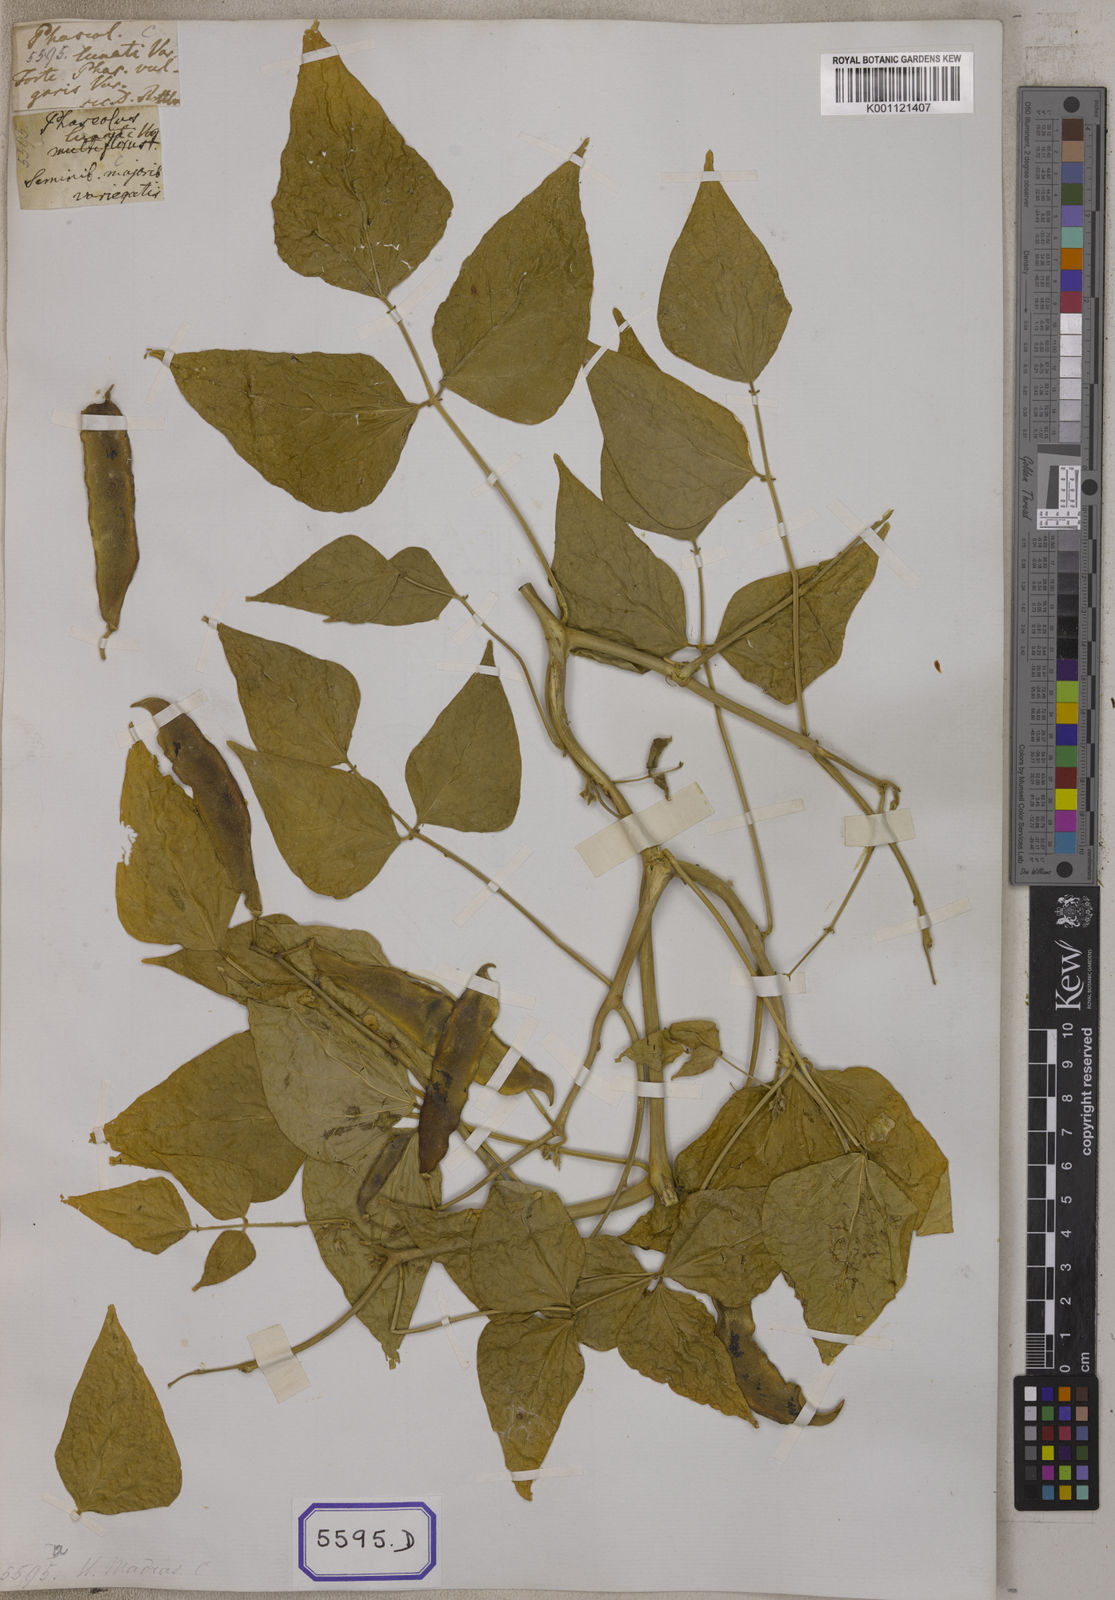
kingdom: Plantae
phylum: Tracheophyta
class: Magnoliopsida
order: Fabales
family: Fabaceae
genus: Phaseolus
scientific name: Phaseolus vulgaris
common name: Bean
